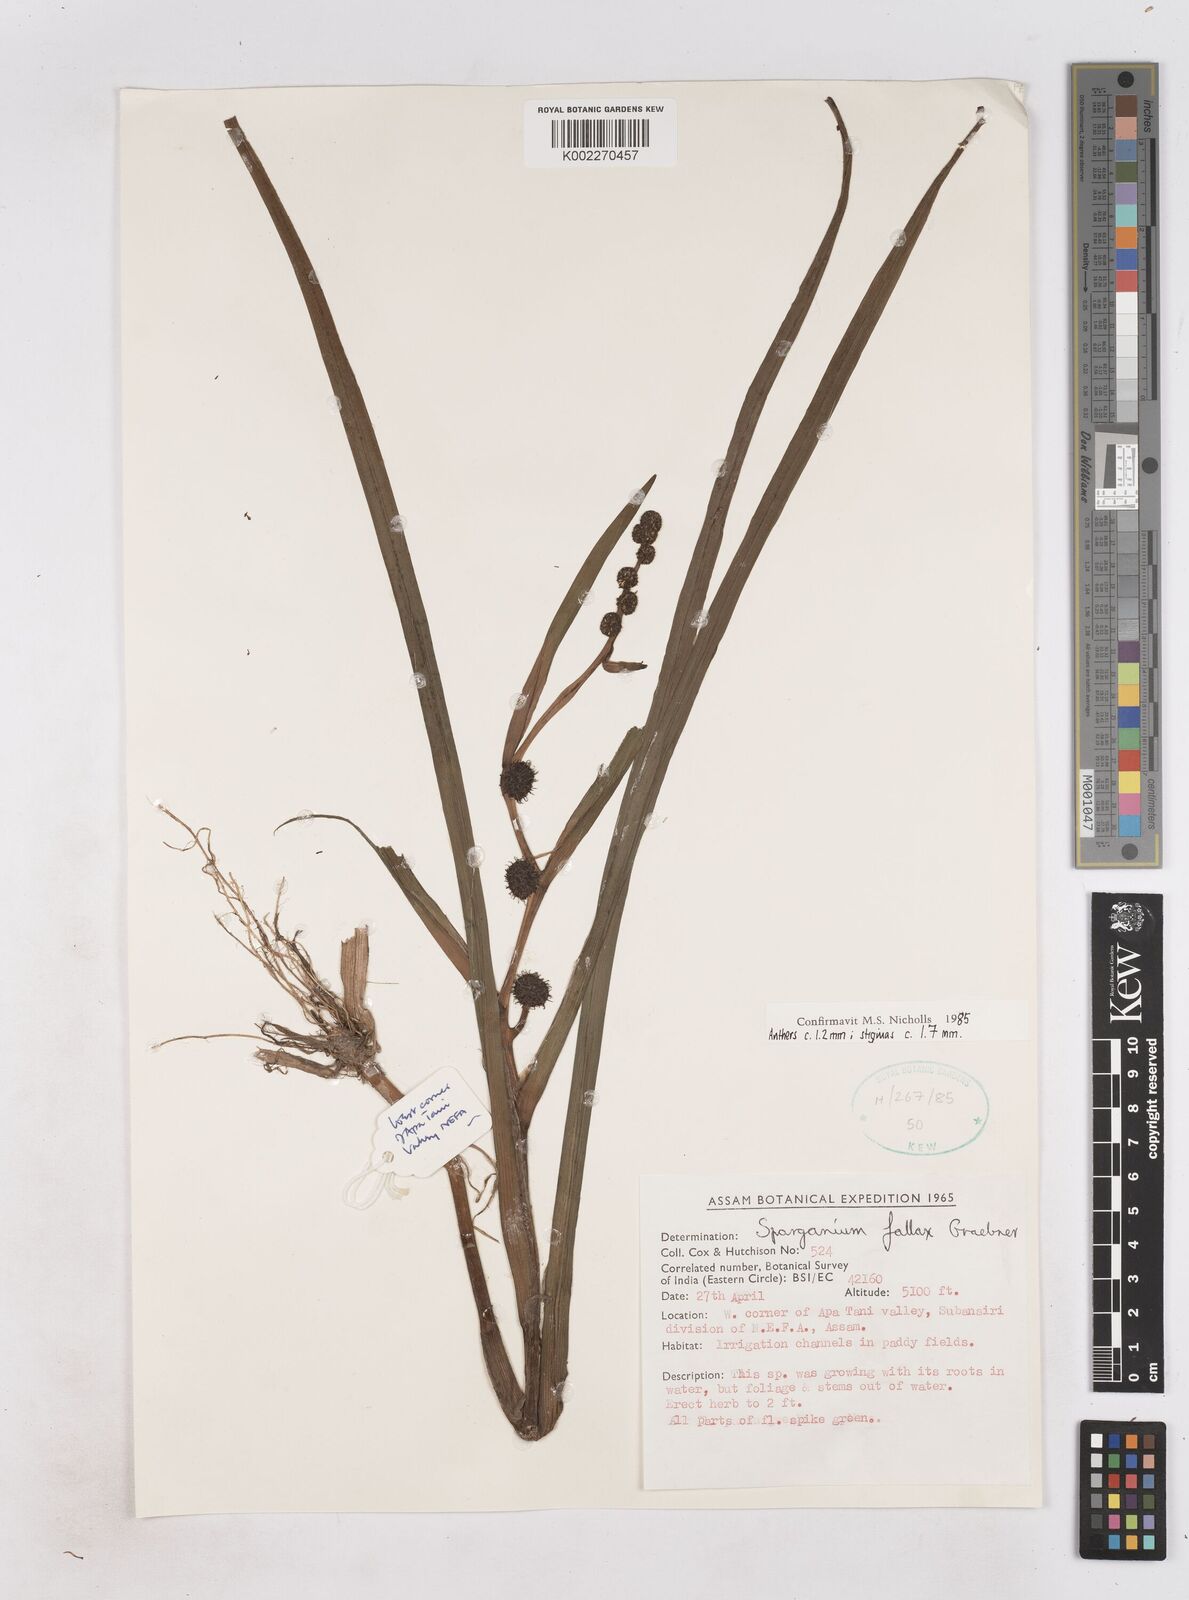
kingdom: Plantae
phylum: Tracheophyta
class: Liliopsida
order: Poales
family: Typhaceae
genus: Sparganium
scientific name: Sparganium fallax
